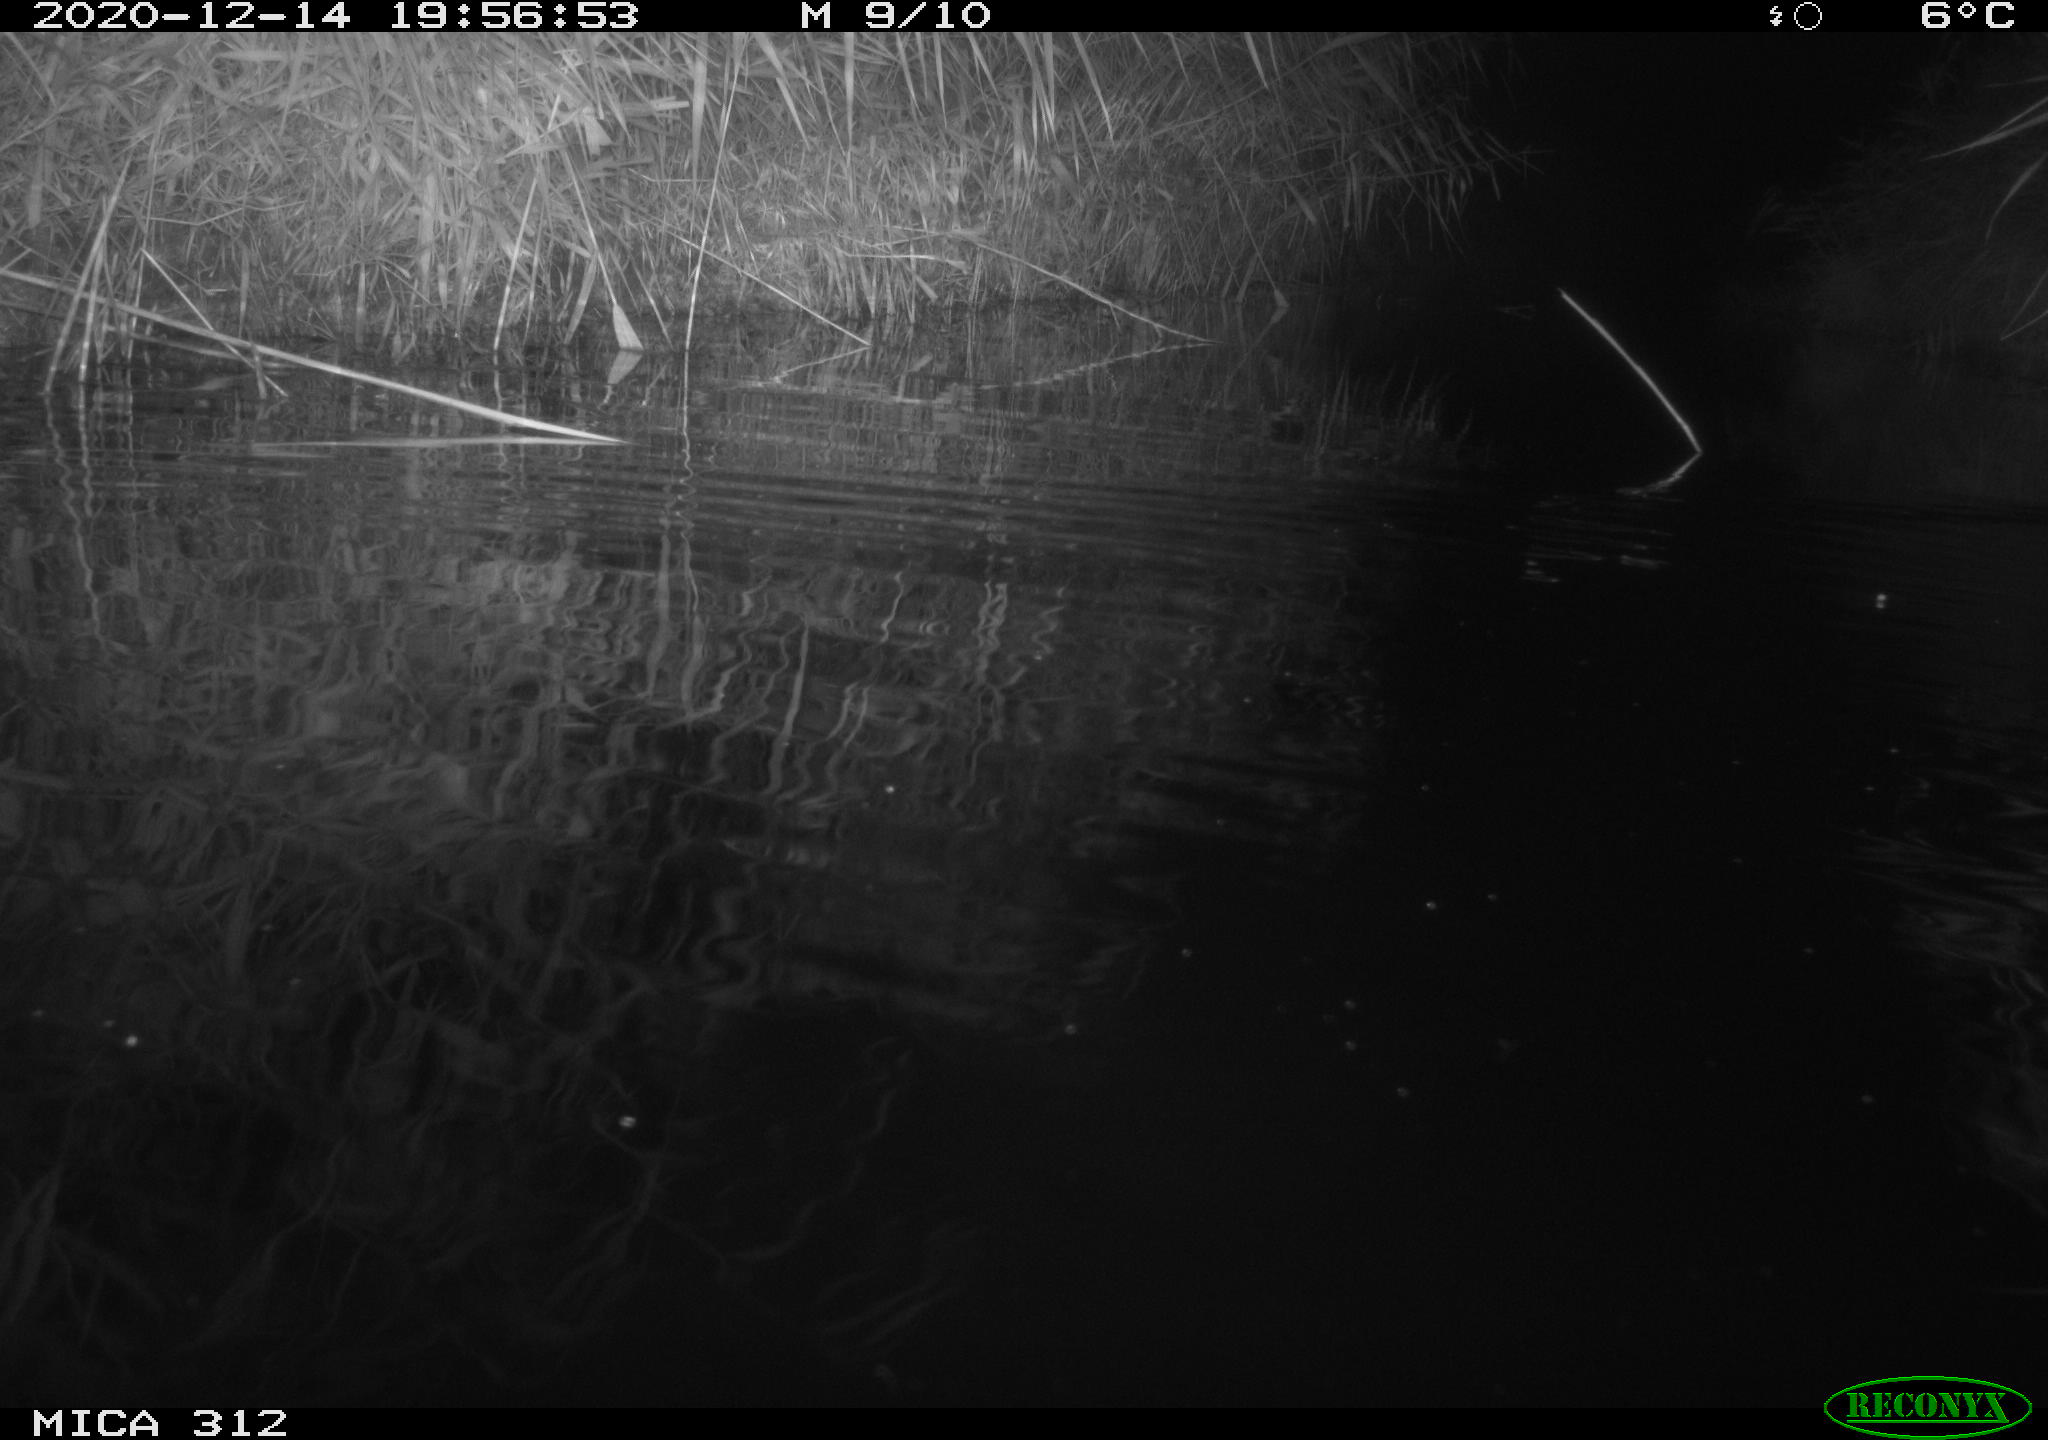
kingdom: Animalia
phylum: Chordata
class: Mammalia
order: Rodentia
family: Muridae
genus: Rattus
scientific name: Rattus norvegicus
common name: Brown rat
